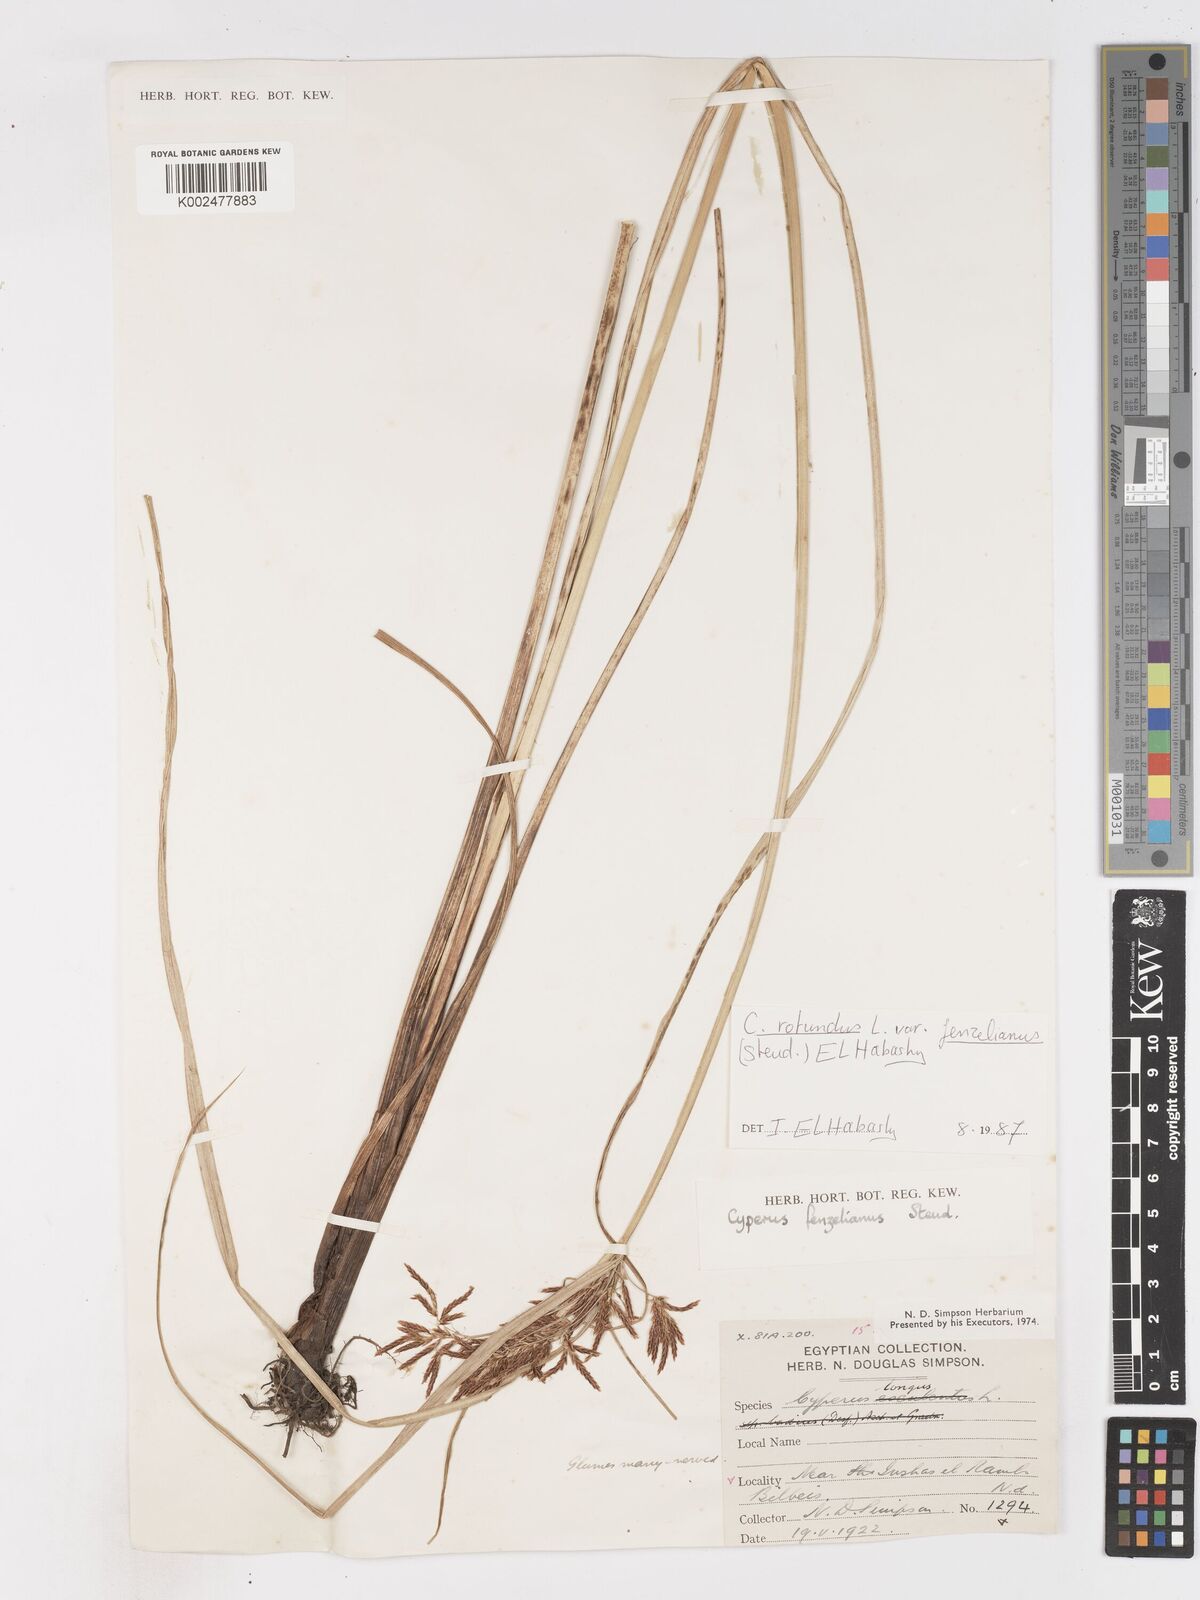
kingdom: Plantae
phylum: Tracheophyta
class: Liliopsida
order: Poales
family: Cyperaceae
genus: Cyperus
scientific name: Cyperus longus
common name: Galingale
